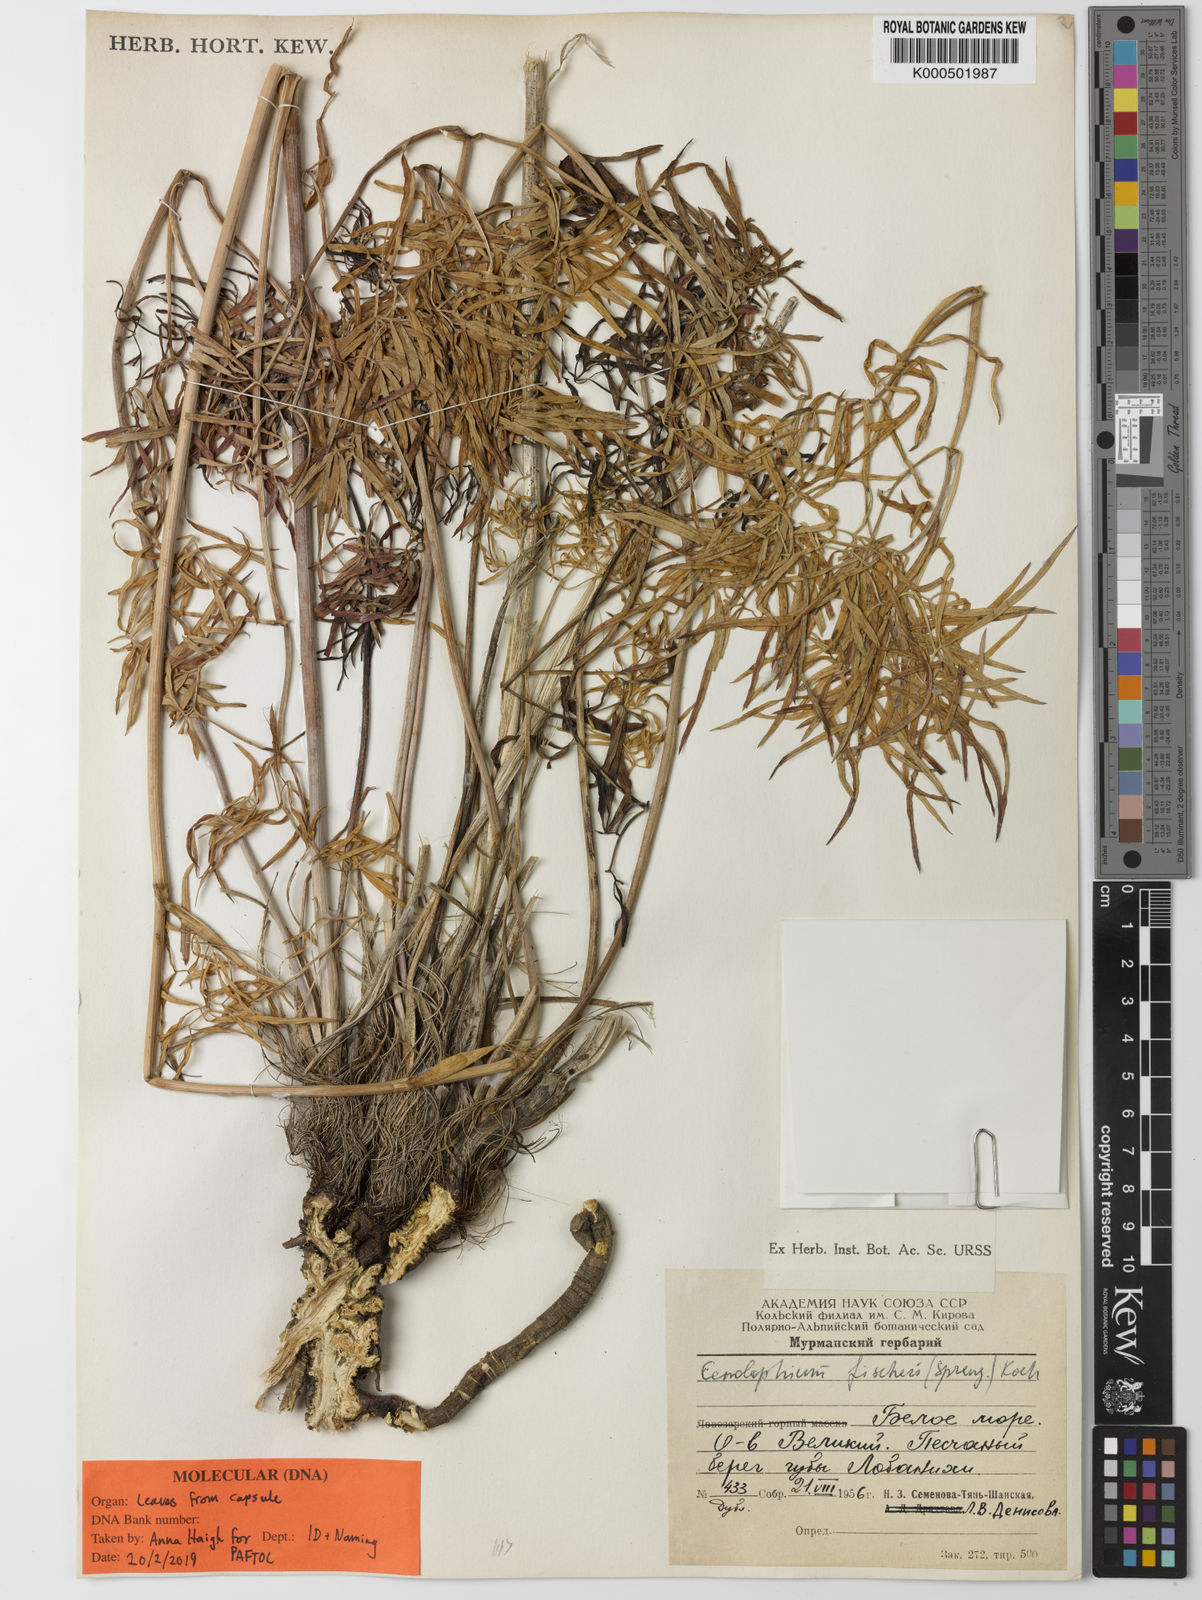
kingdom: Plantae
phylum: Tracheophyta
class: Magnoliopsida
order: Apiales
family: Apiaceae
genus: Cenolophium
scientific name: Cenolophium fischeri
